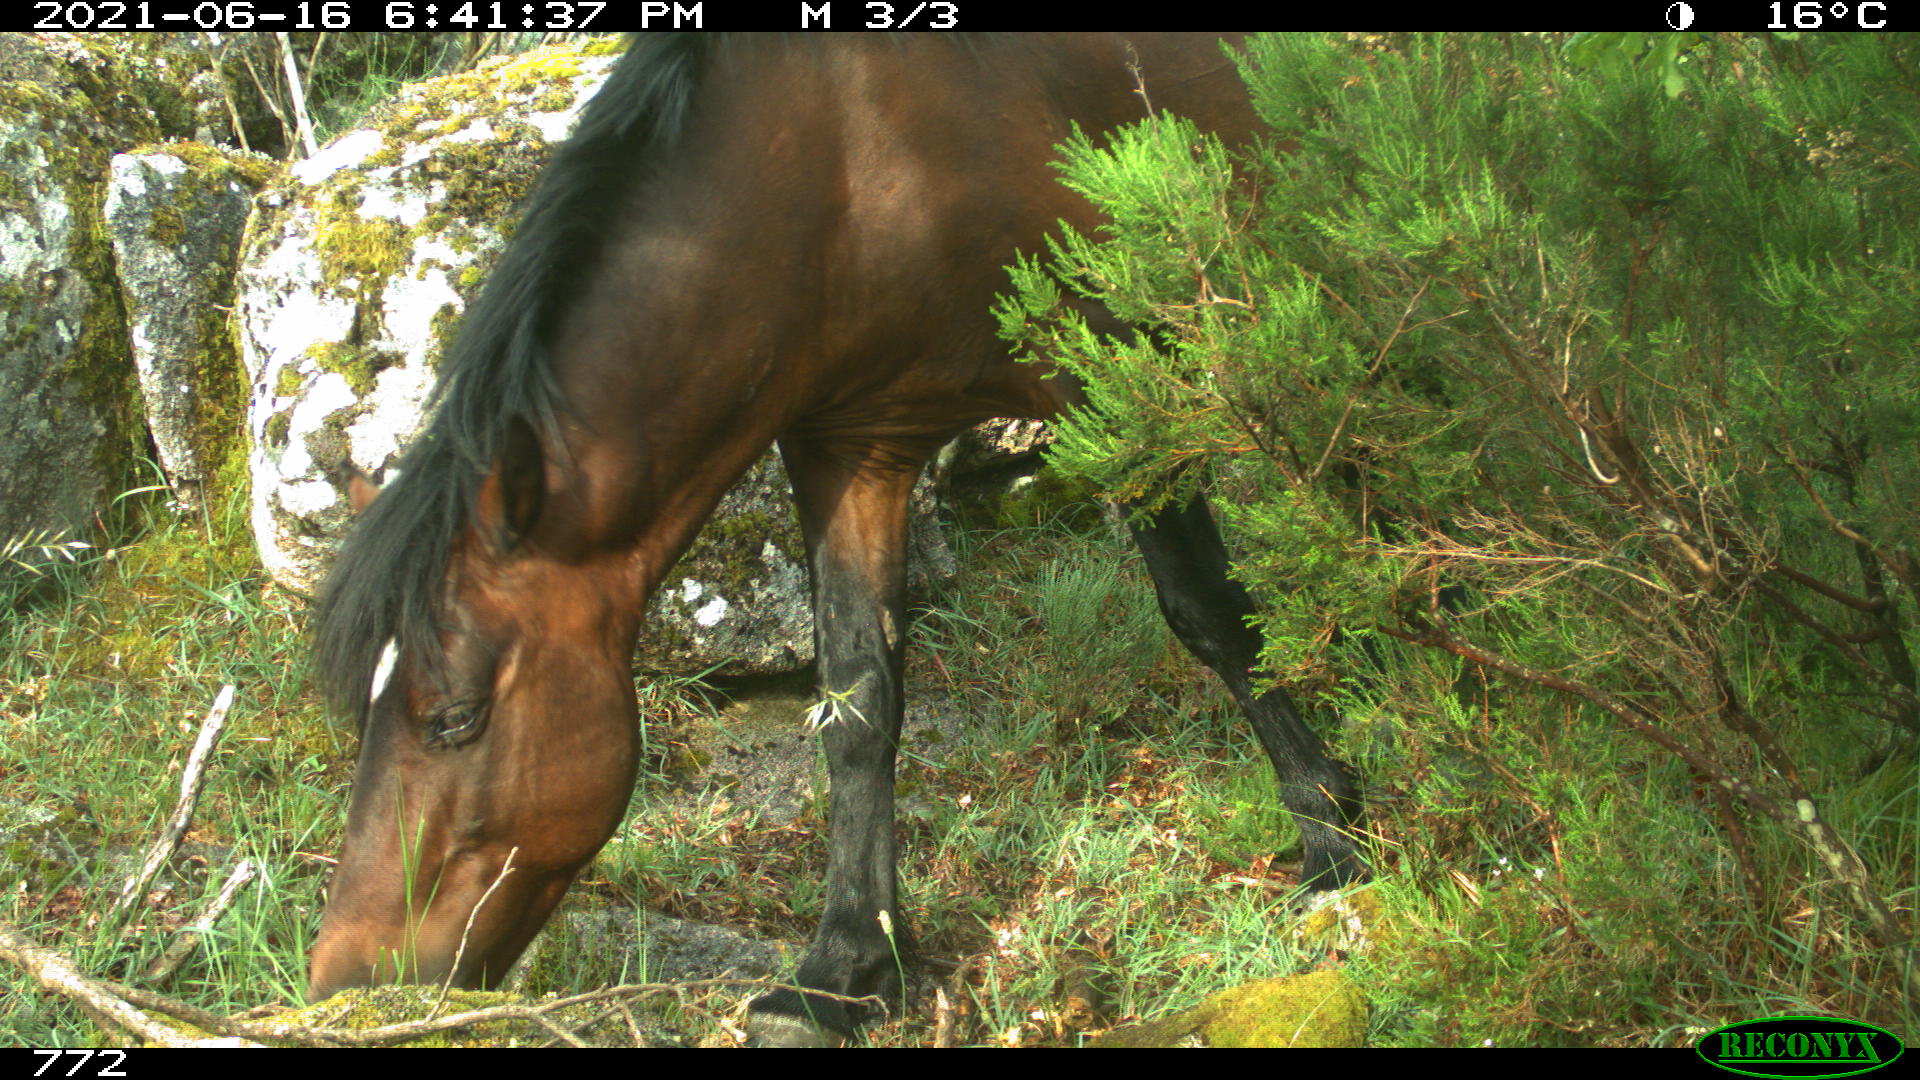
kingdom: Animalia
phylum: Chordata
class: Mammalia
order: Perissodactyla
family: Equidae
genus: Equus
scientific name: Equus caballus
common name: Horse
